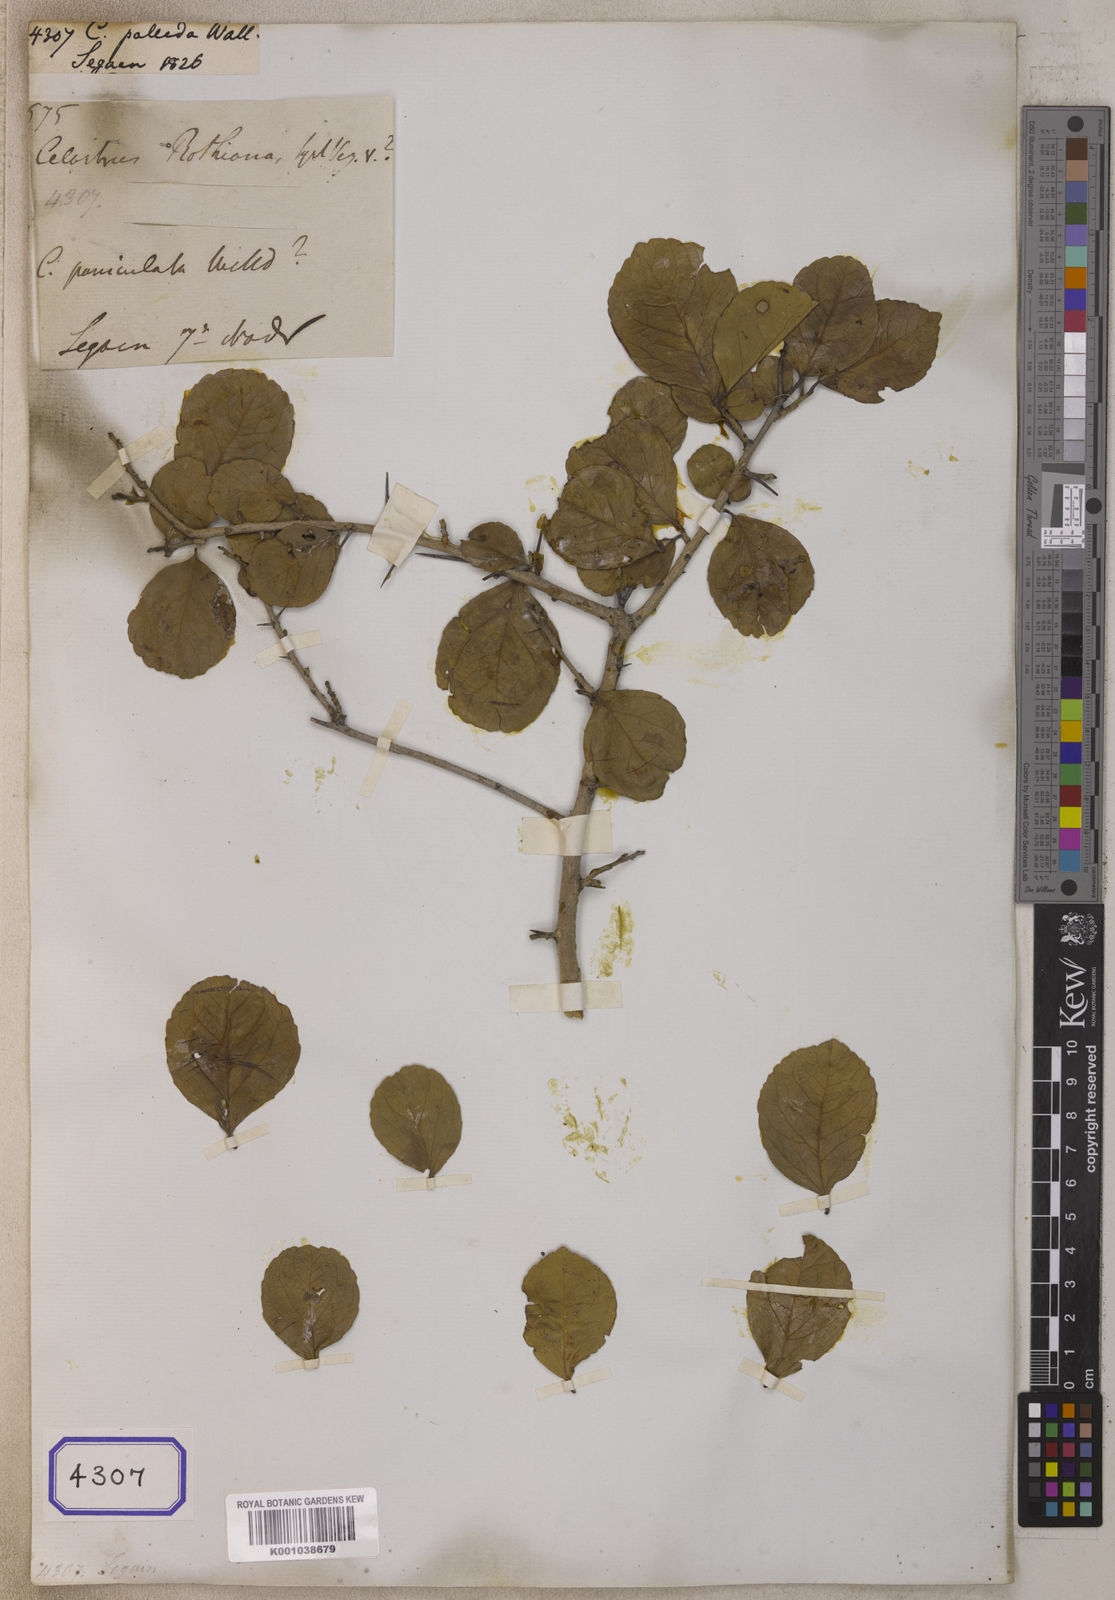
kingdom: Plantae
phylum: Tracheophyta
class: Magnoliopsida
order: Celastrales
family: Celastraceae
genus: Celastrus
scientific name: Celastrus
